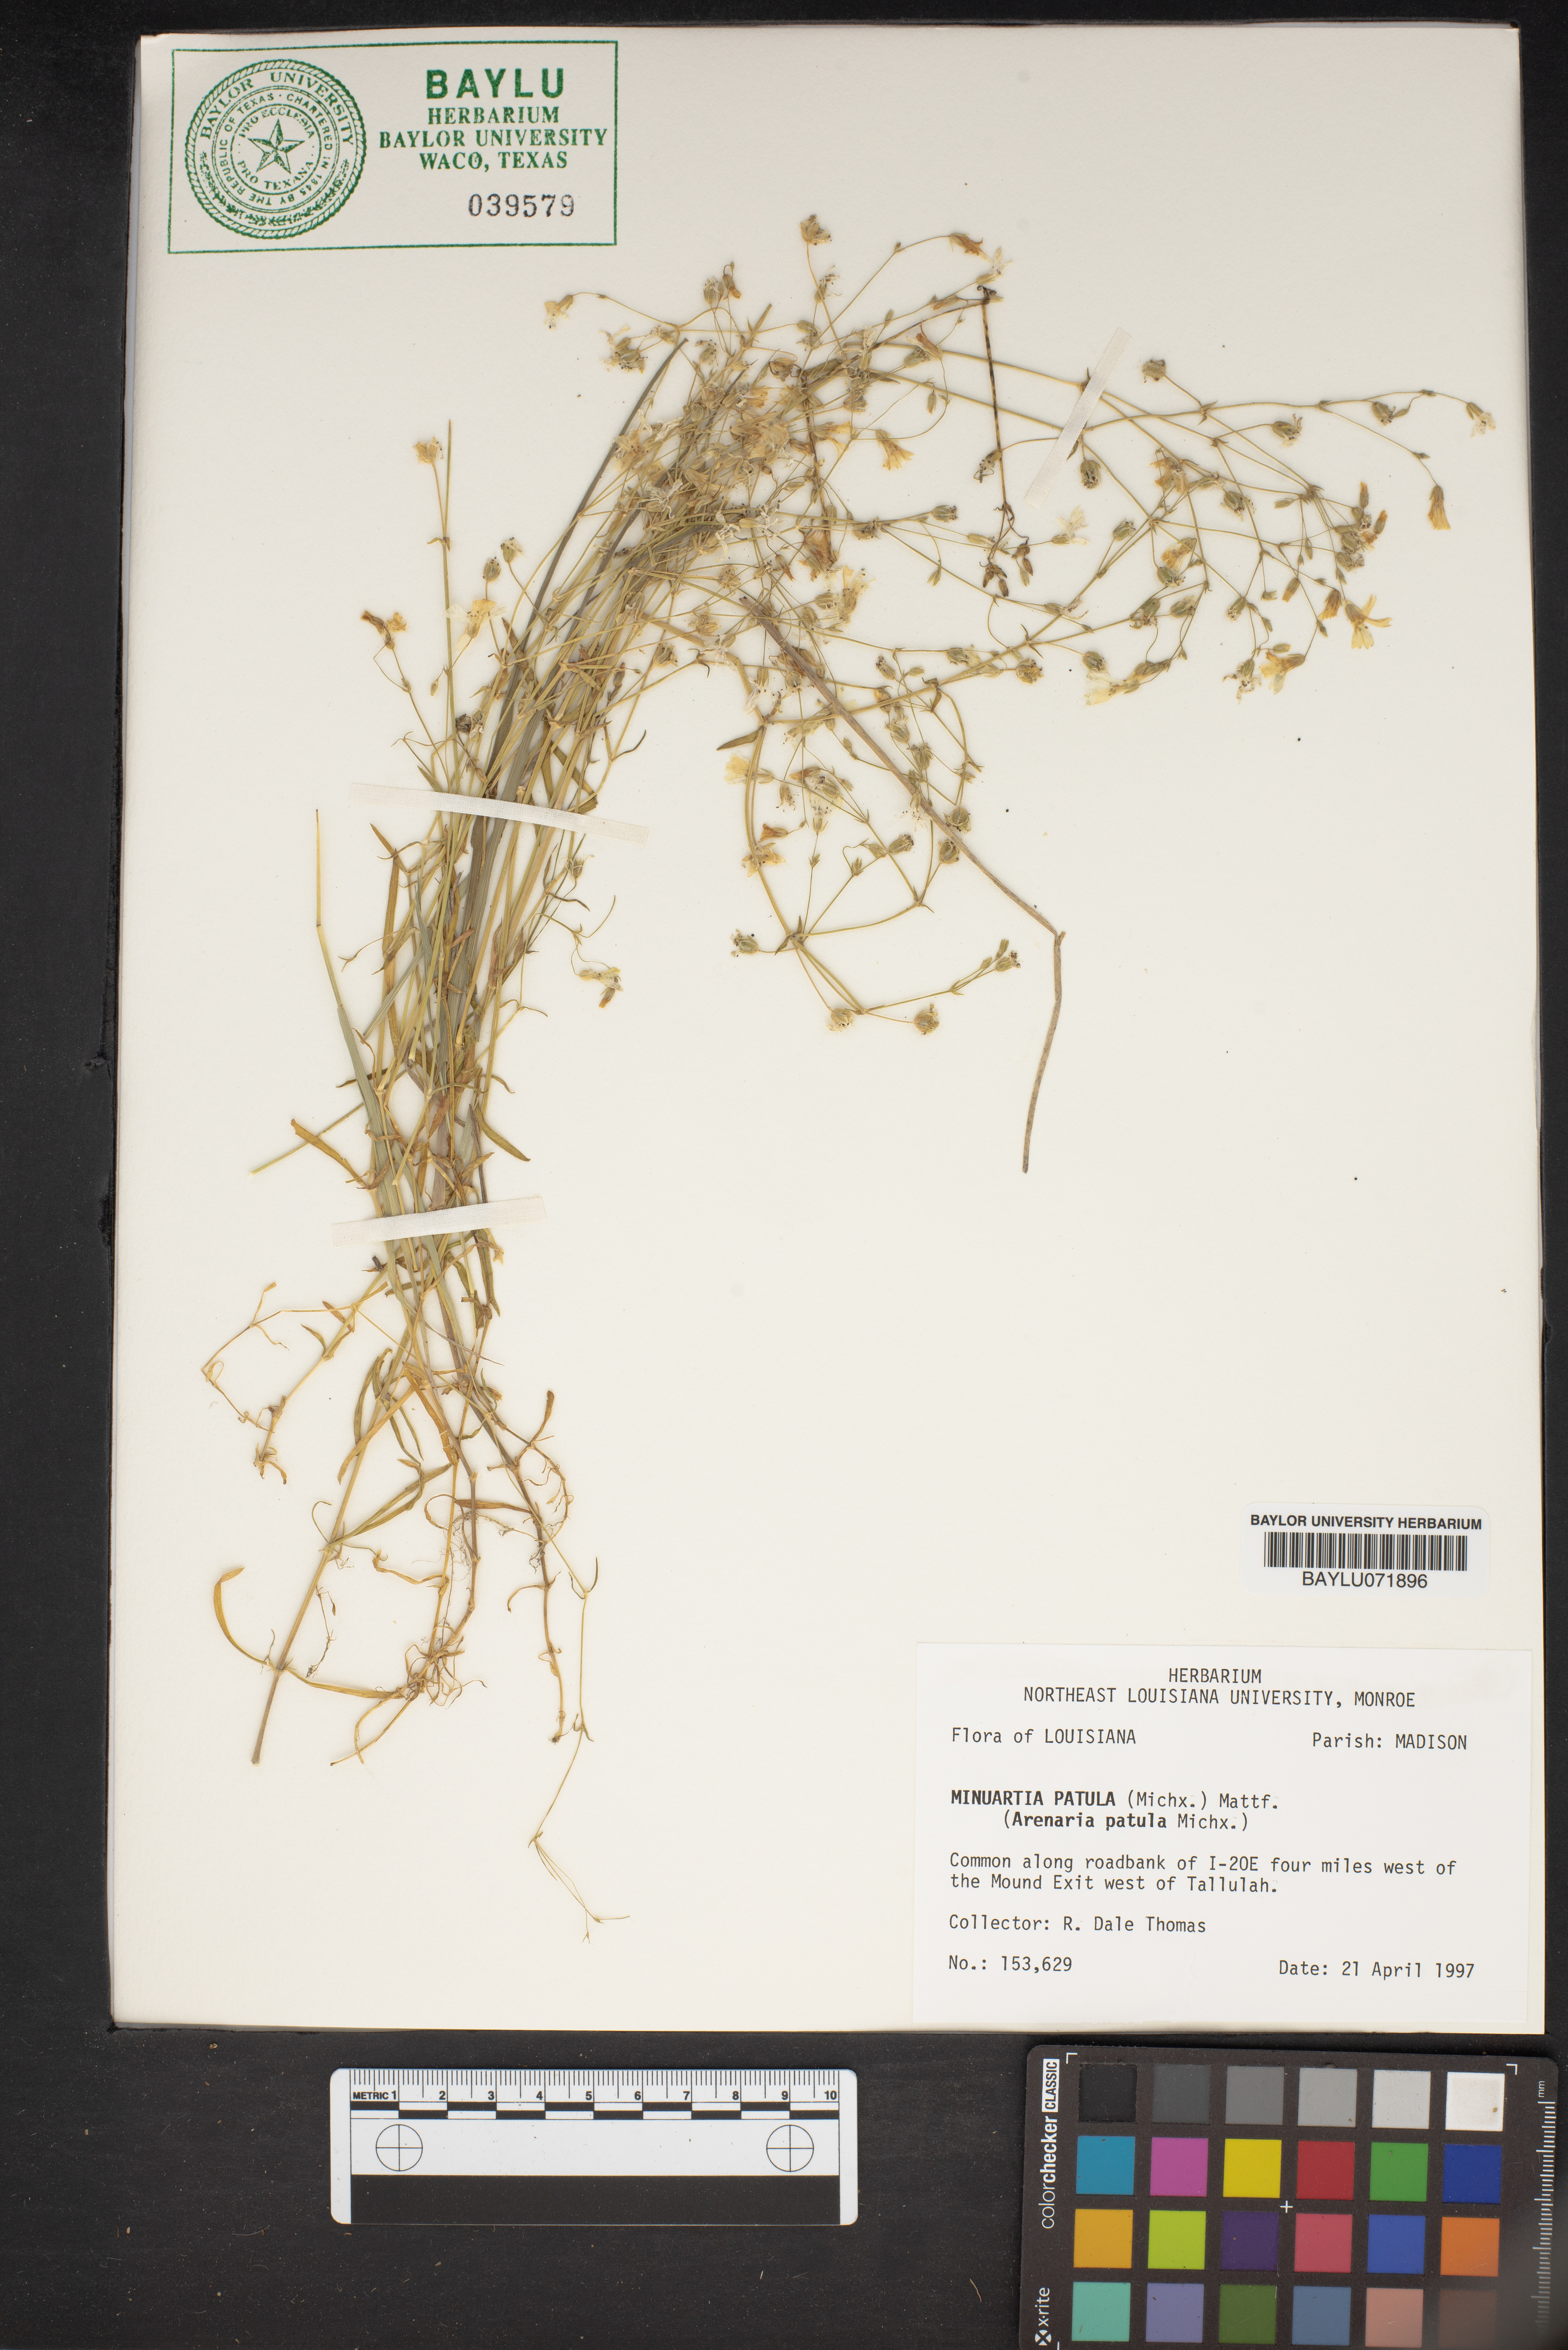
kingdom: Plantae
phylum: Tracheophyta
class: Magnoliopsida
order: Caryophyllales
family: Caryophyllaceae
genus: Mononeuria
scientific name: Mononeuria patula
